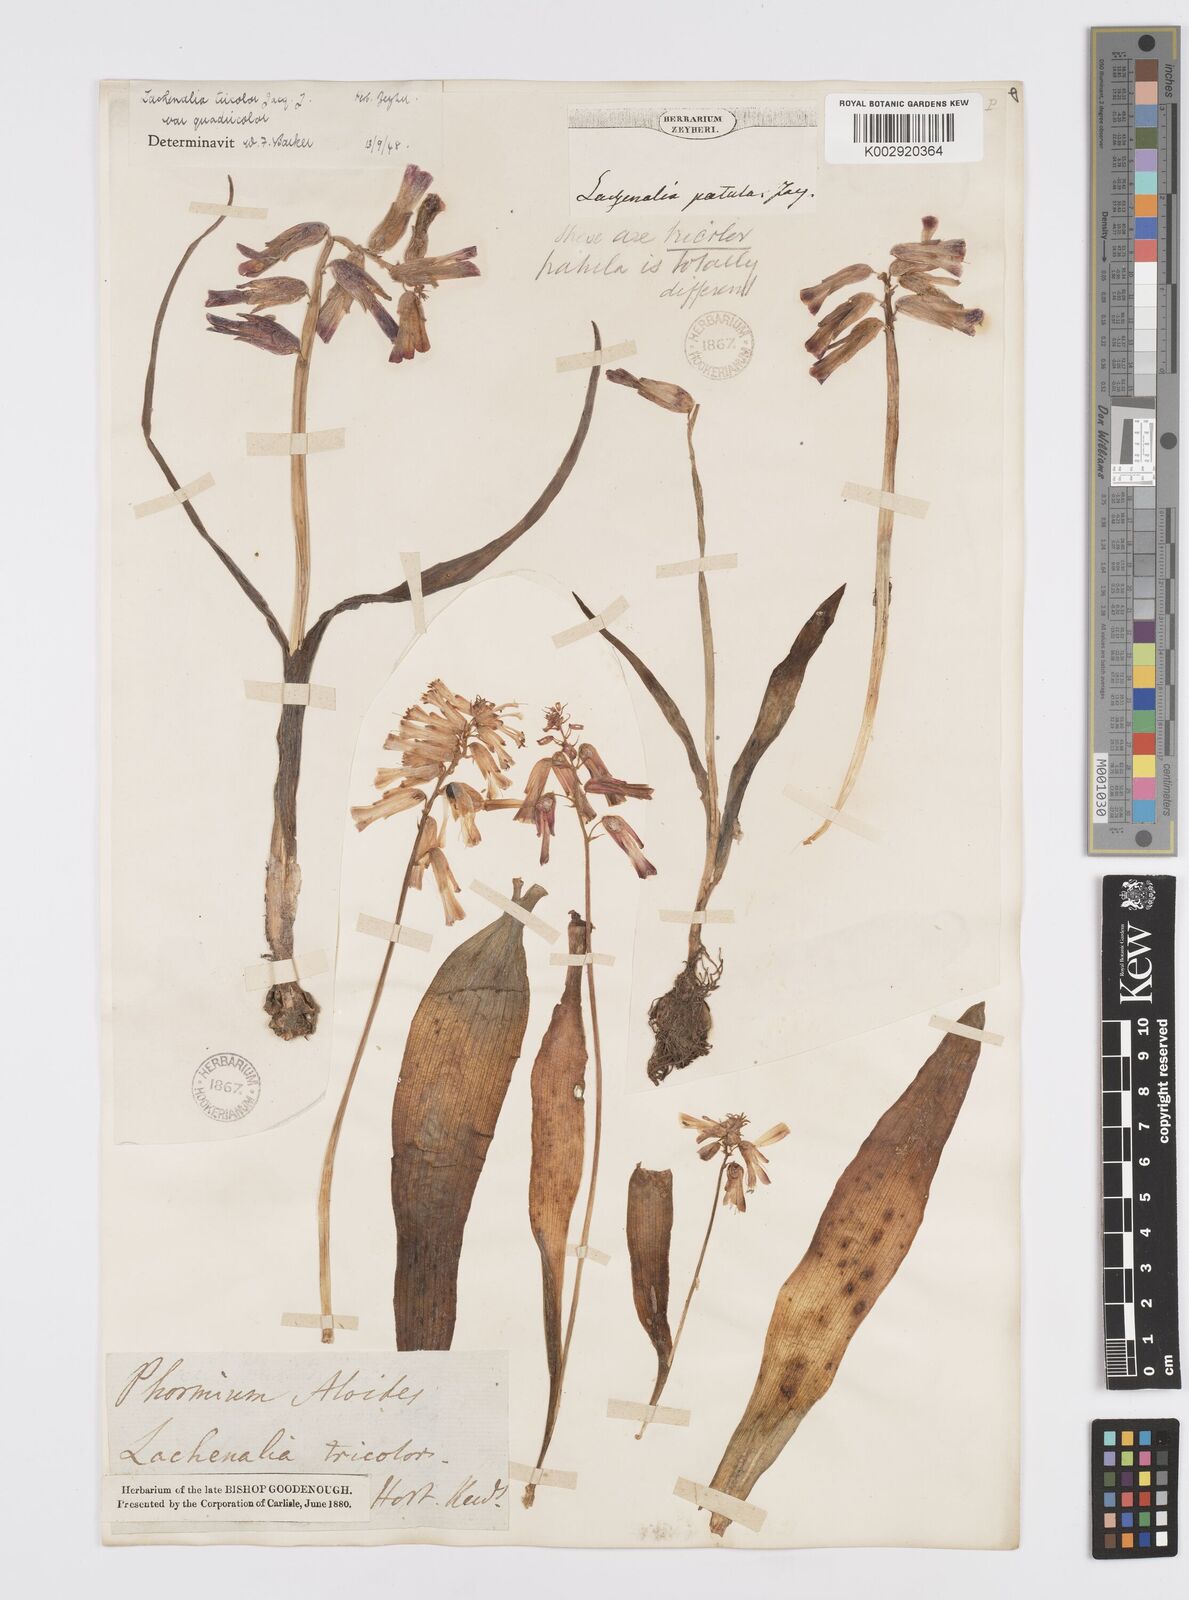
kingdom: Plantae
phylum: Tracheophyta
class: Liliopsida
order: Asparagales
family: Asparagaceae
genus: Lachenalia
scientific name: Lachenalia aloides
